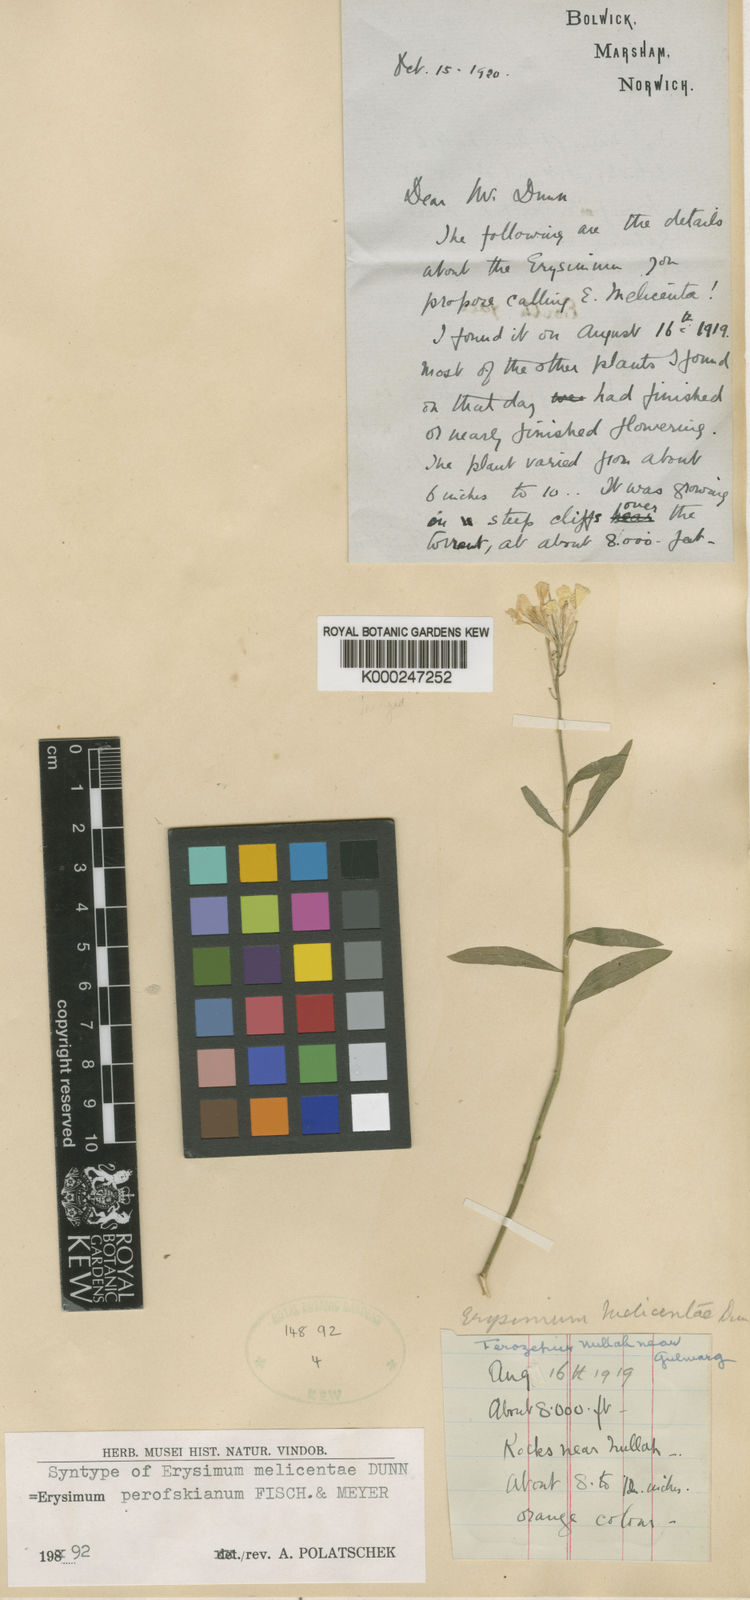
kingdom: Plantae
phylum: Tracheophyta
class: Magnoliopsida
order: Brassicales
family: Brassicaceae
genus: Erysimum
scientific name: Erysimum melicentae
